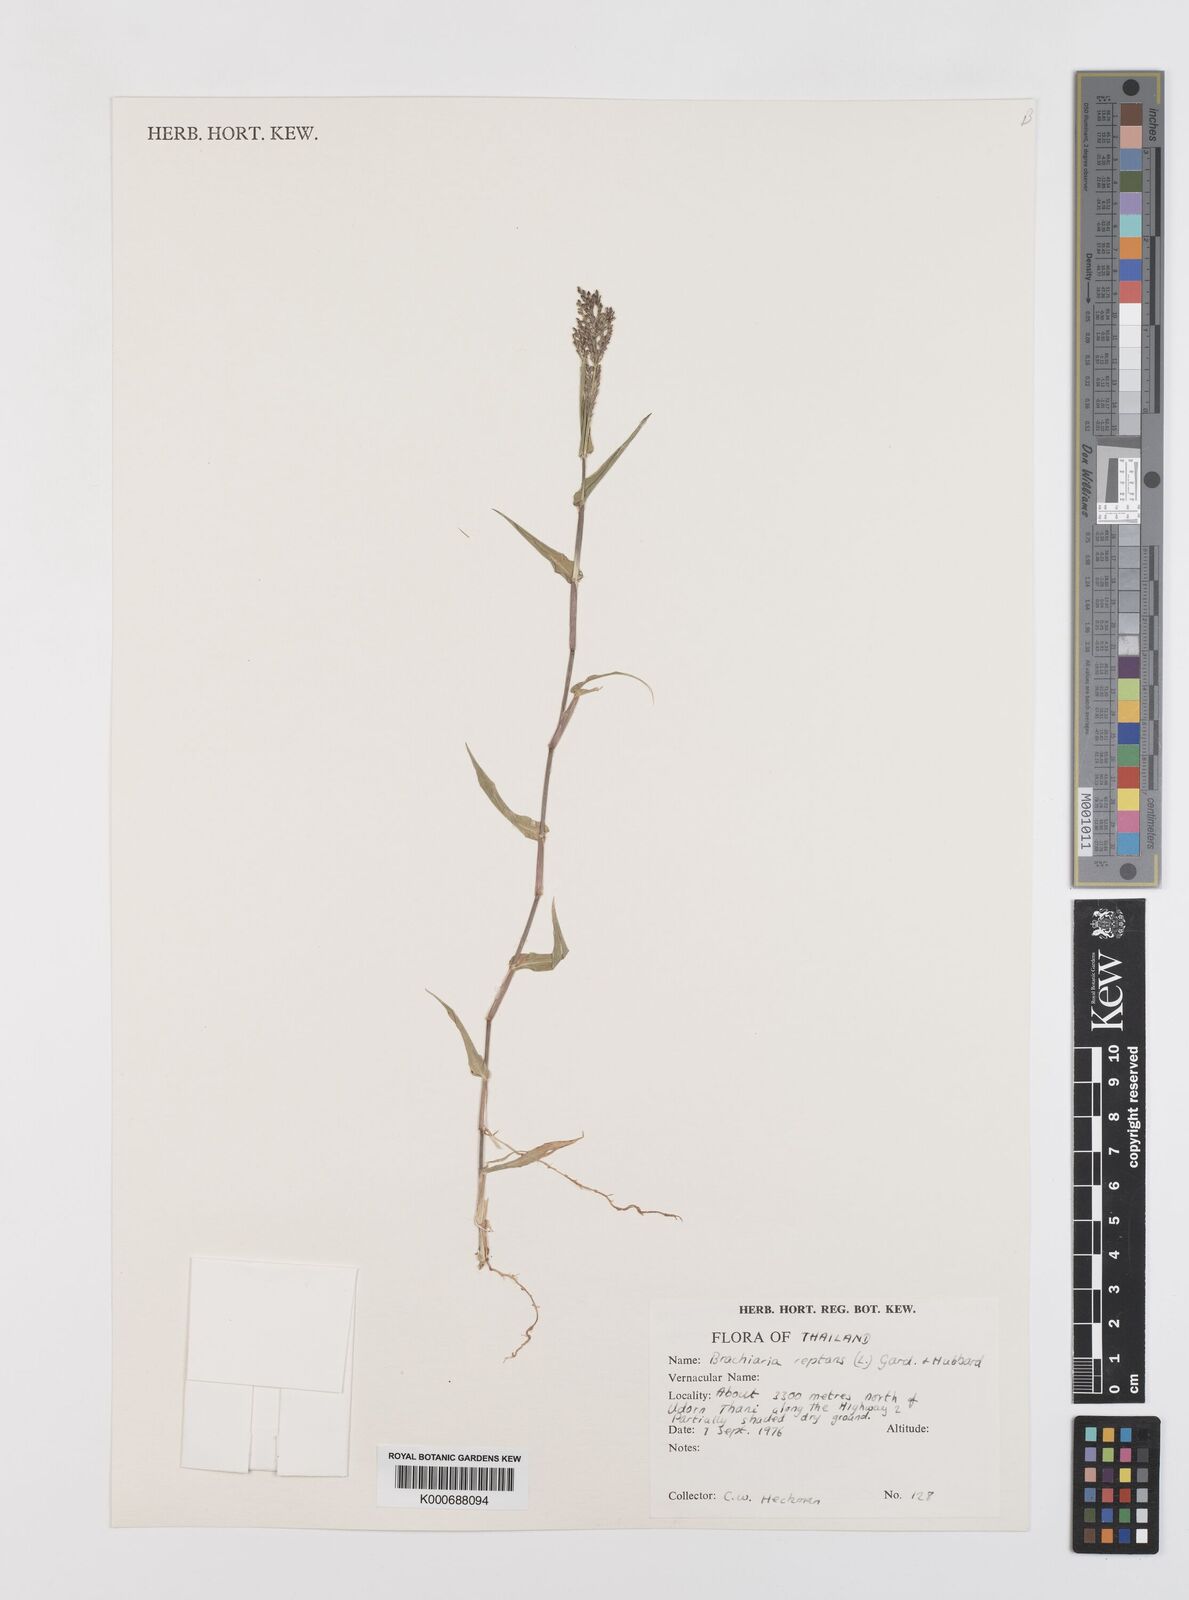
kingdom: Plantae
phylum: Tracheophyta
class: Liliopsida
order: Poales
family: Poaceae
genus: Urochloa
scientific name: Urochloa reptans
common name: Sprawling signalgrass
